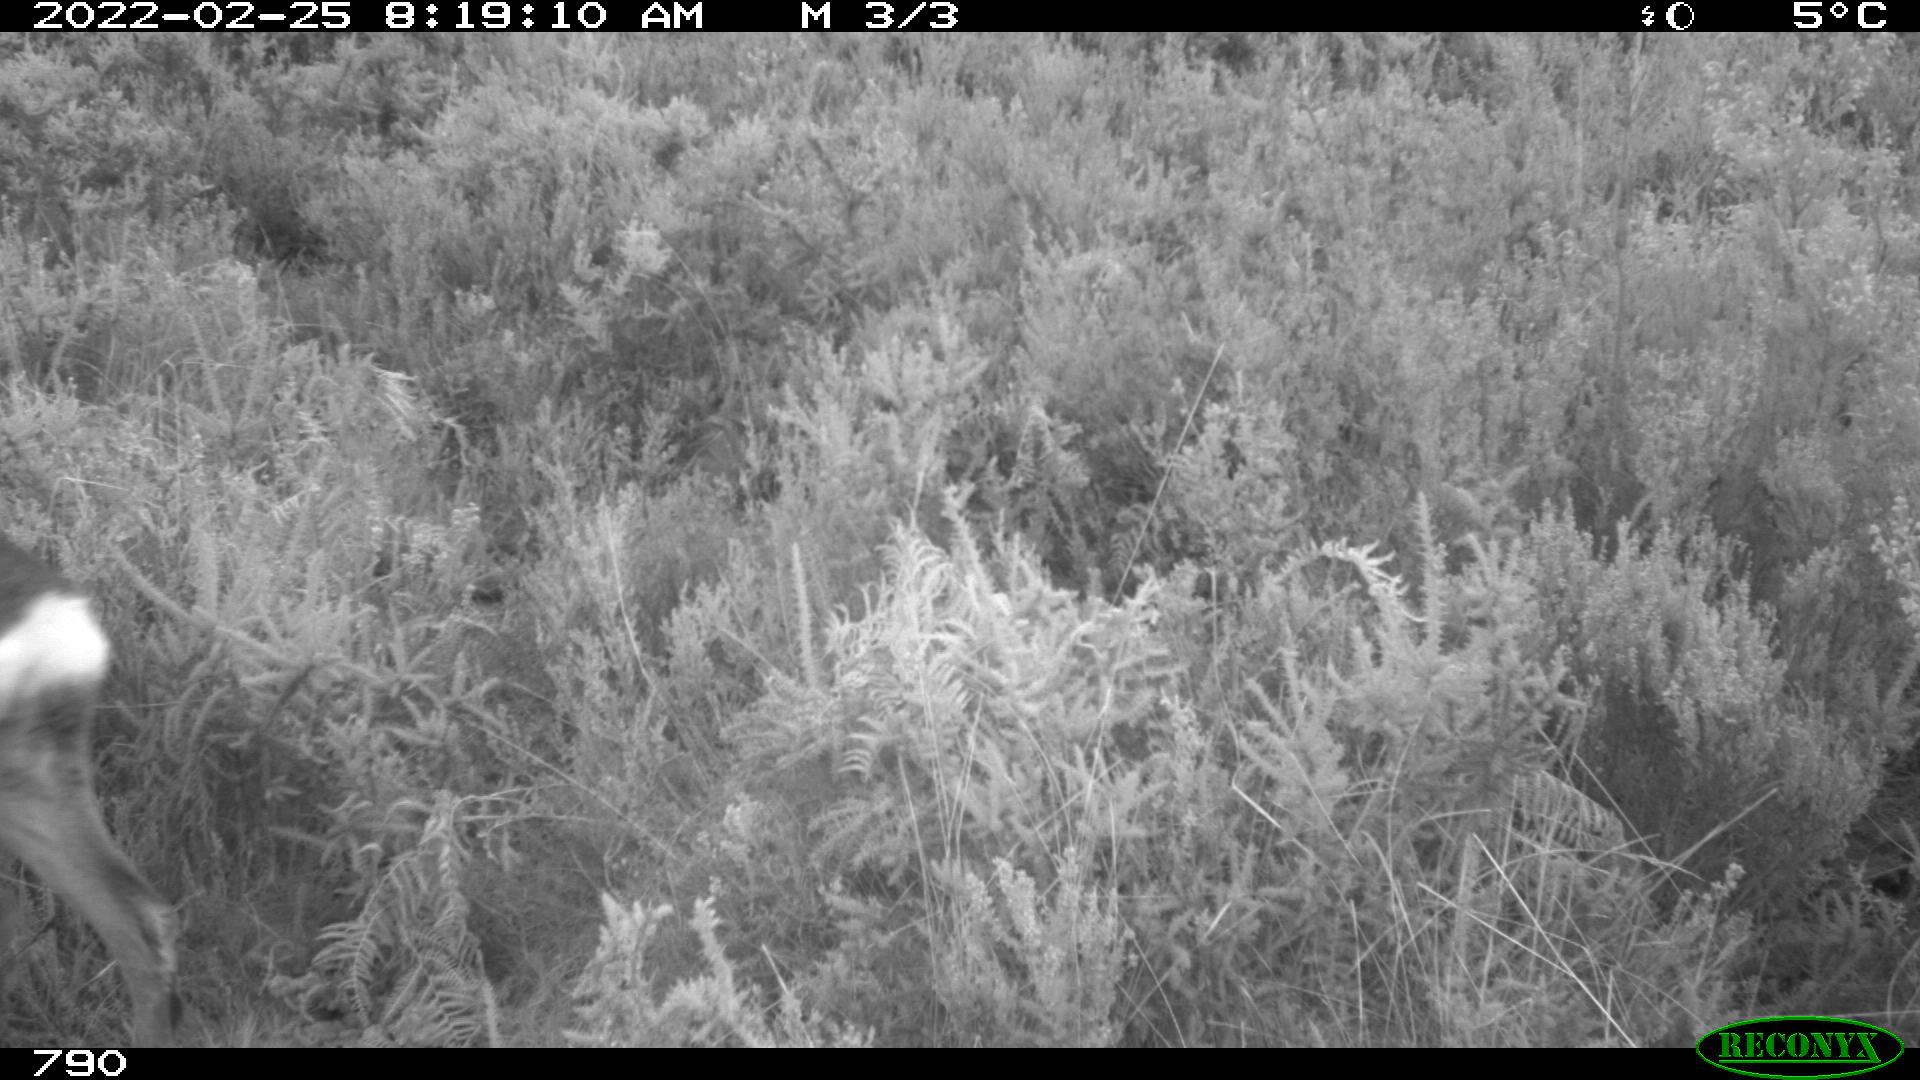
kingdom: Animalia
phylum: Chordata
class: Mammalia
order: Artiodactyla
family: Cervidae
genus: Capreolus
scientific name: Capreolus capreolus
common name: Western roe deer
